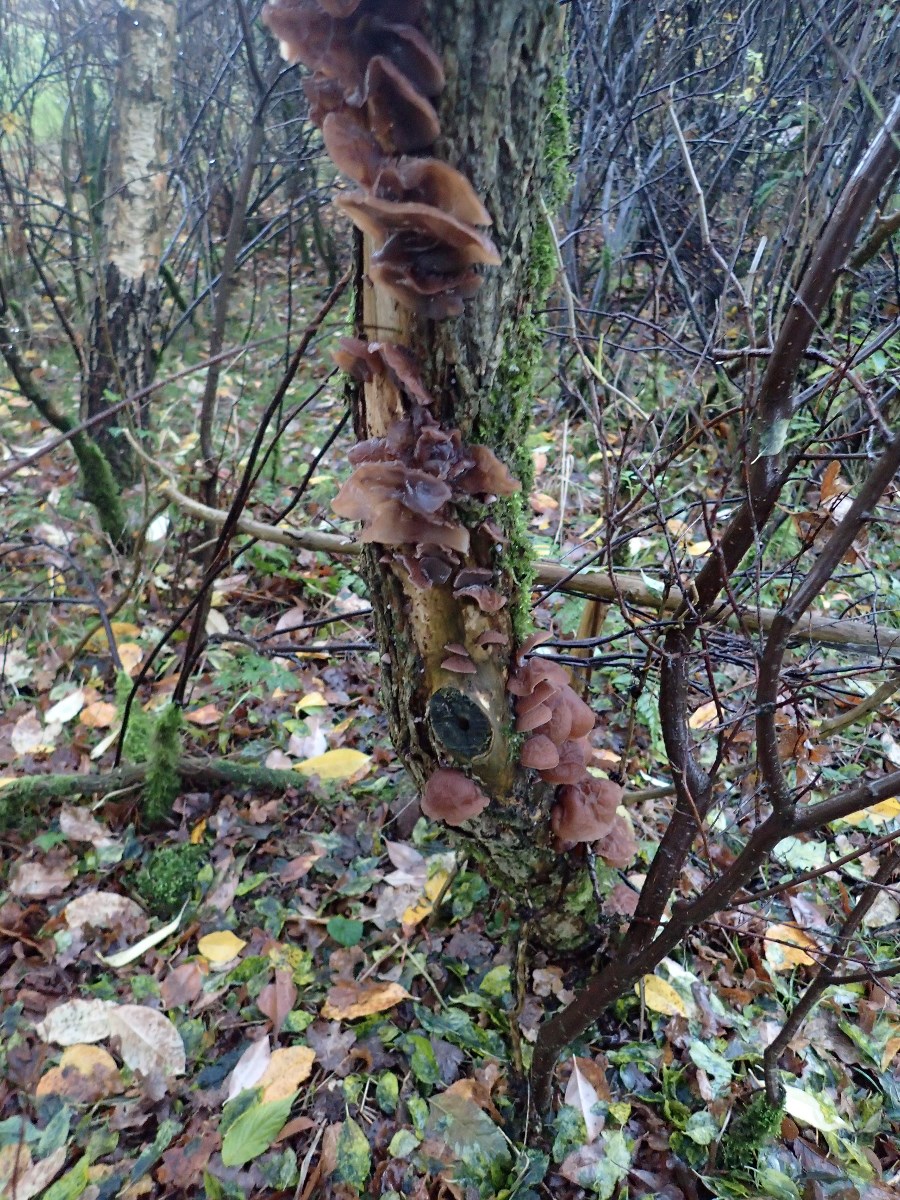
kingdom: Fungi
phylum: Basidiomycota
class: Agaricomycetes
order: Auriculariales
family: Auriculariaceae
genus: Auricularia
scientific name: Auricularia auricula-judae
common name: almindelig judasøre
